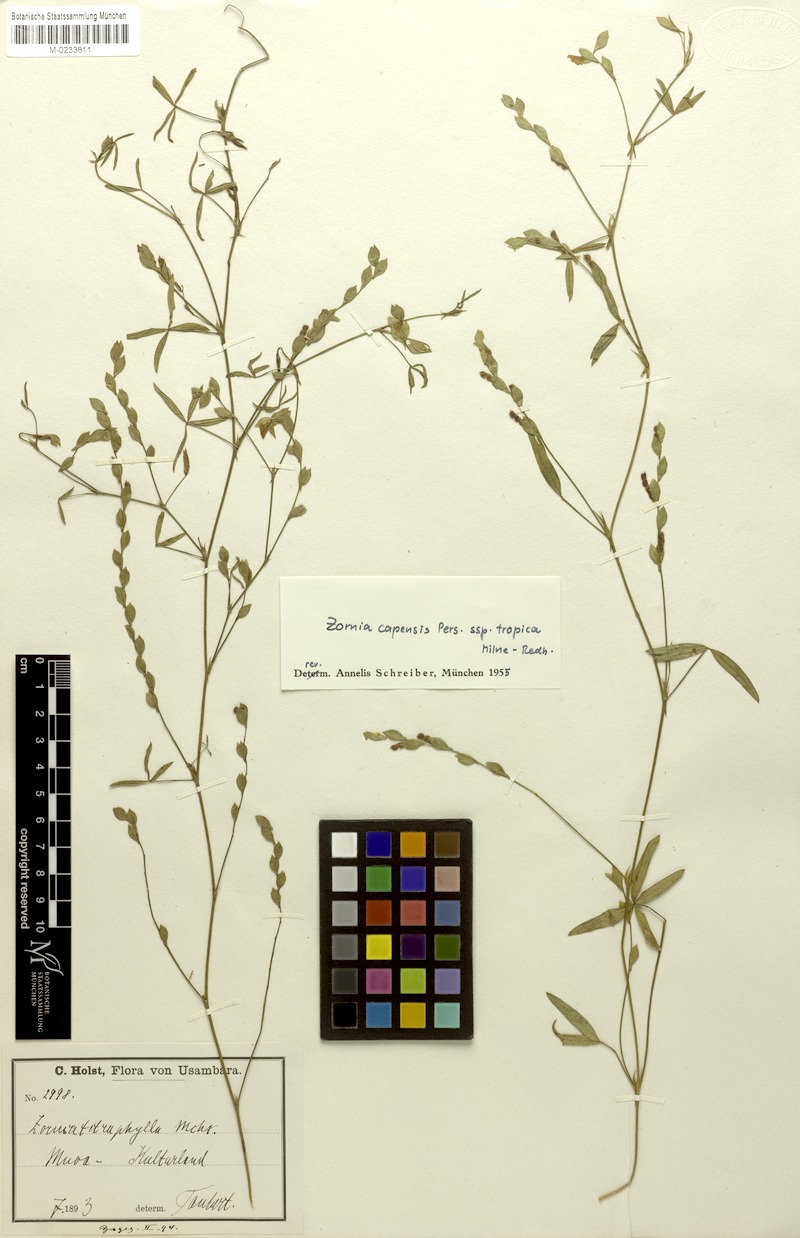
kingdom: Plantae
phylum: Tracheophyta
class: Magnoliopsida
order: Fabales
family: Fabaceae
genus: Zornia
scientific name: Zornia capensis
